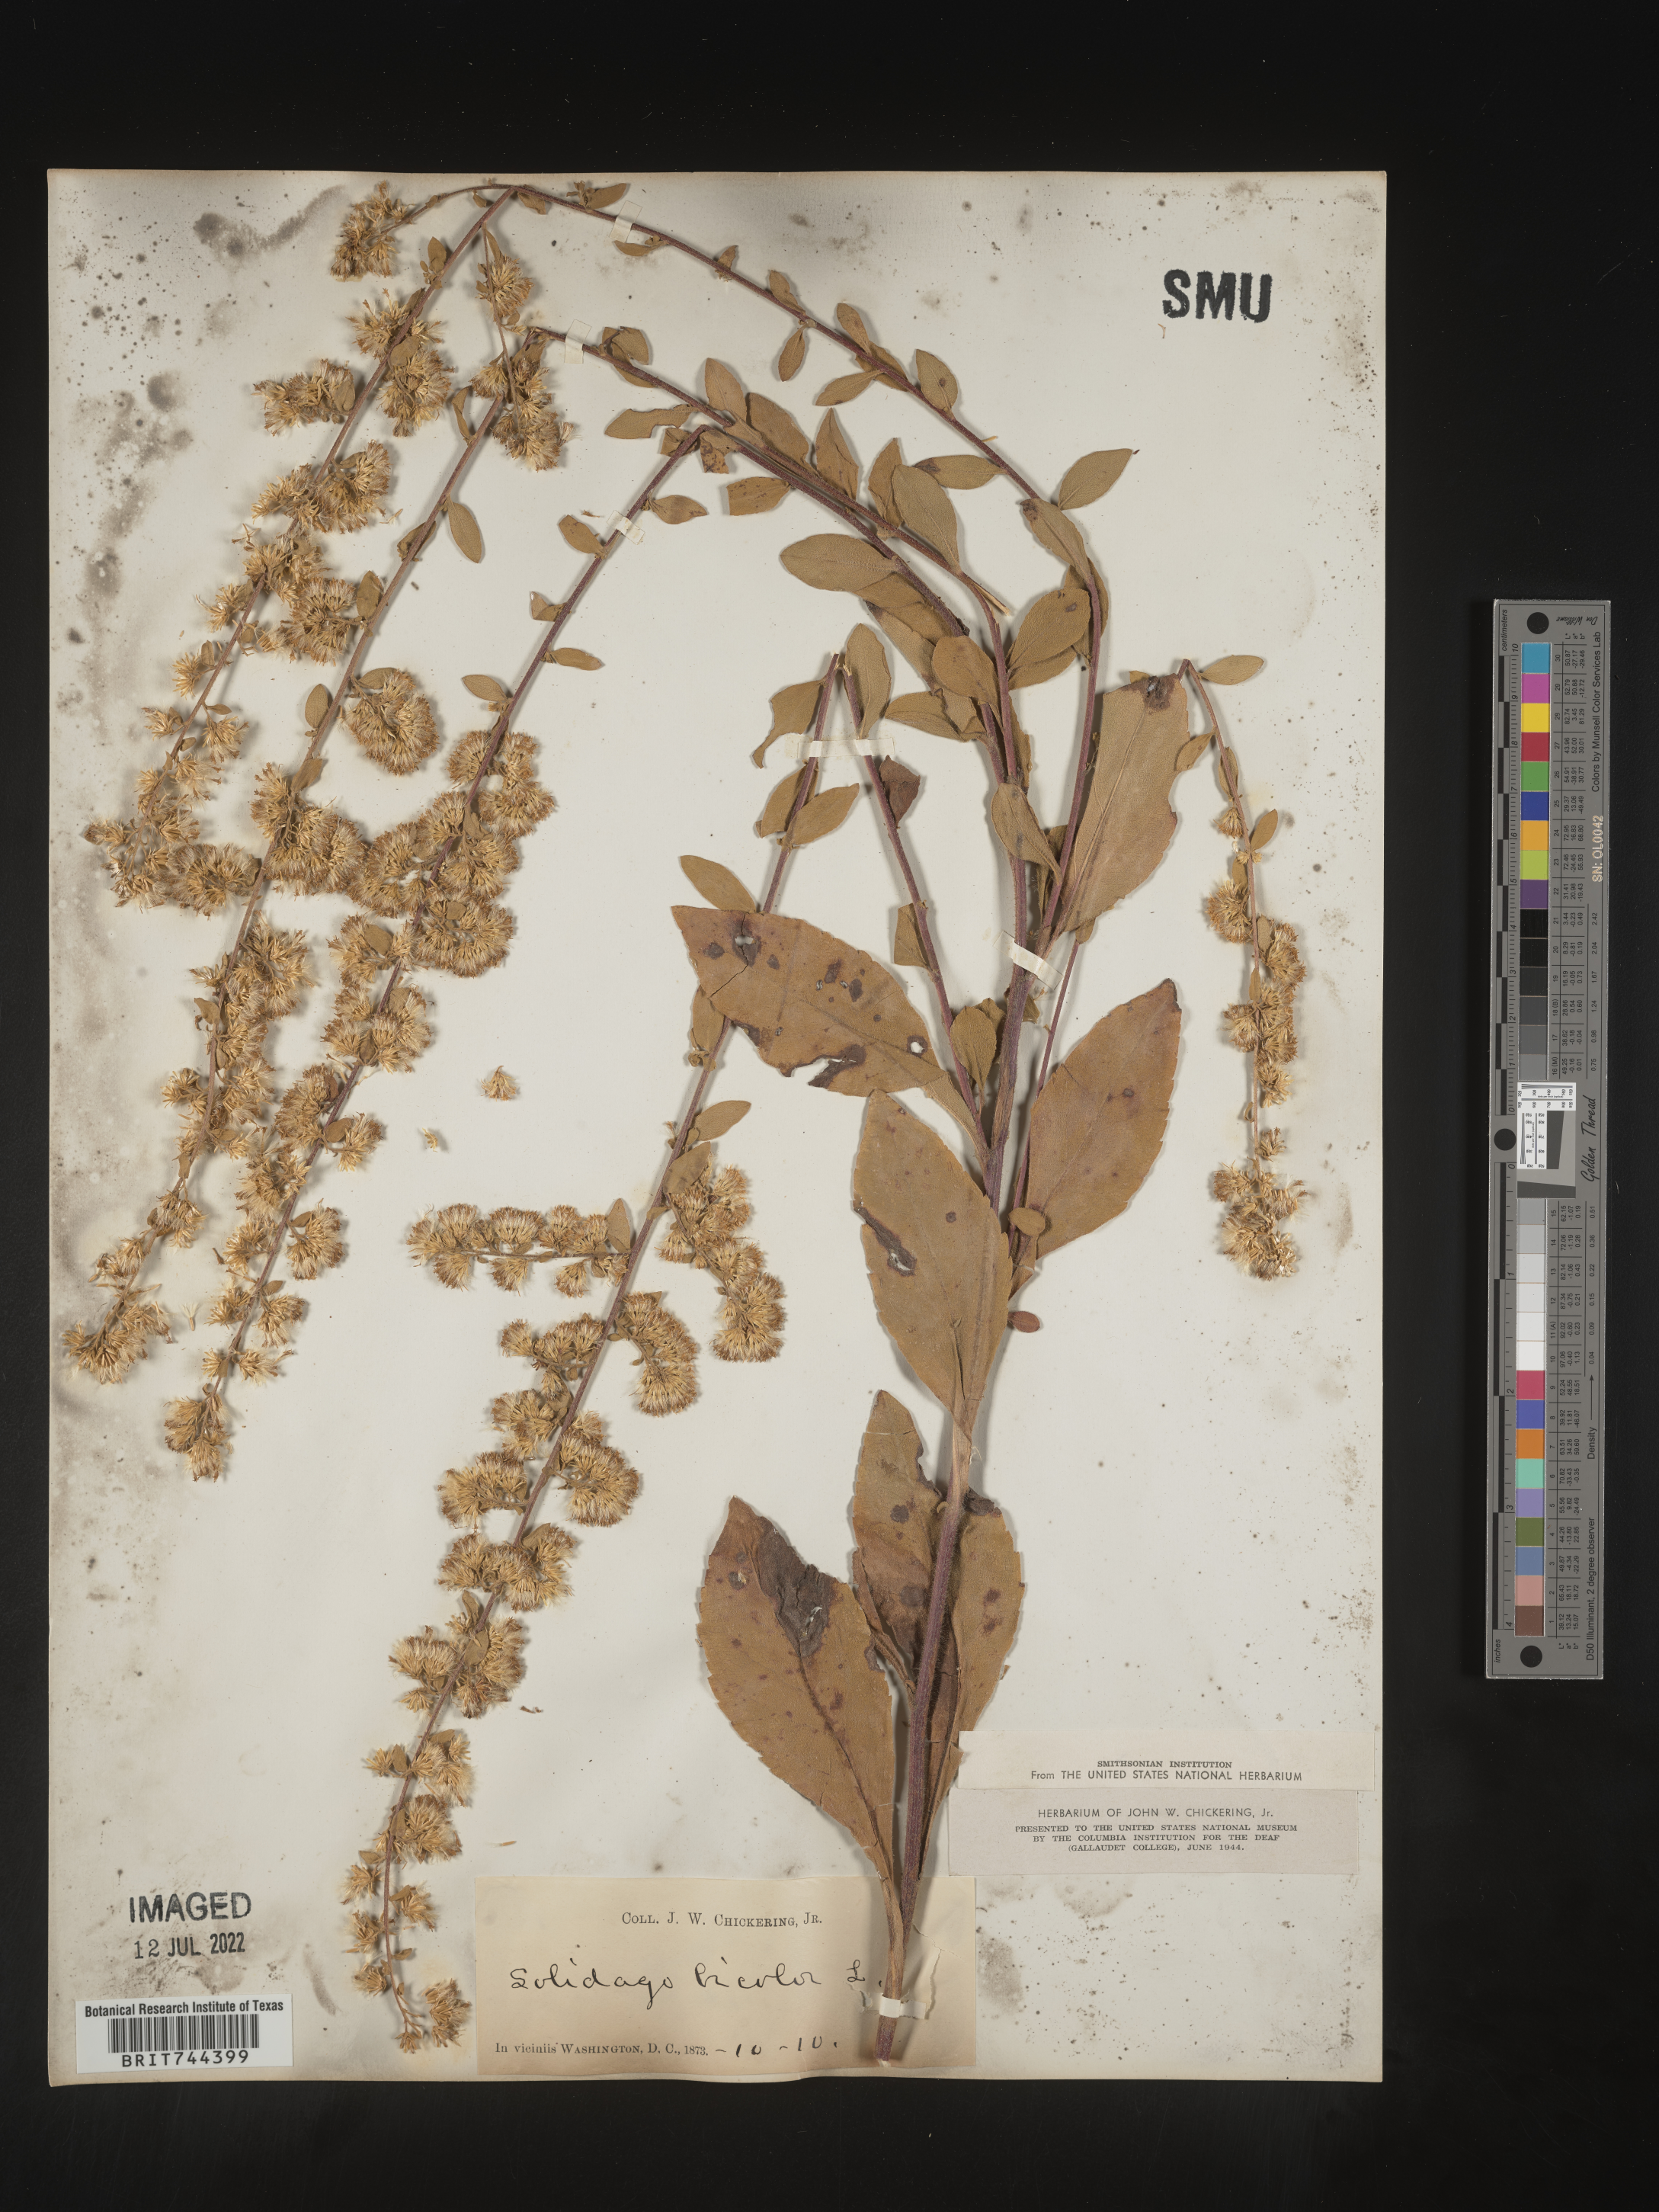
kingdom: Plantae
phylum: Tracheophyta
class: Magnoliopsida
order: Asterales
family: Asteraceae
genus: Solidago
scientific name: Solidago bicolor
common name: Silverrod
